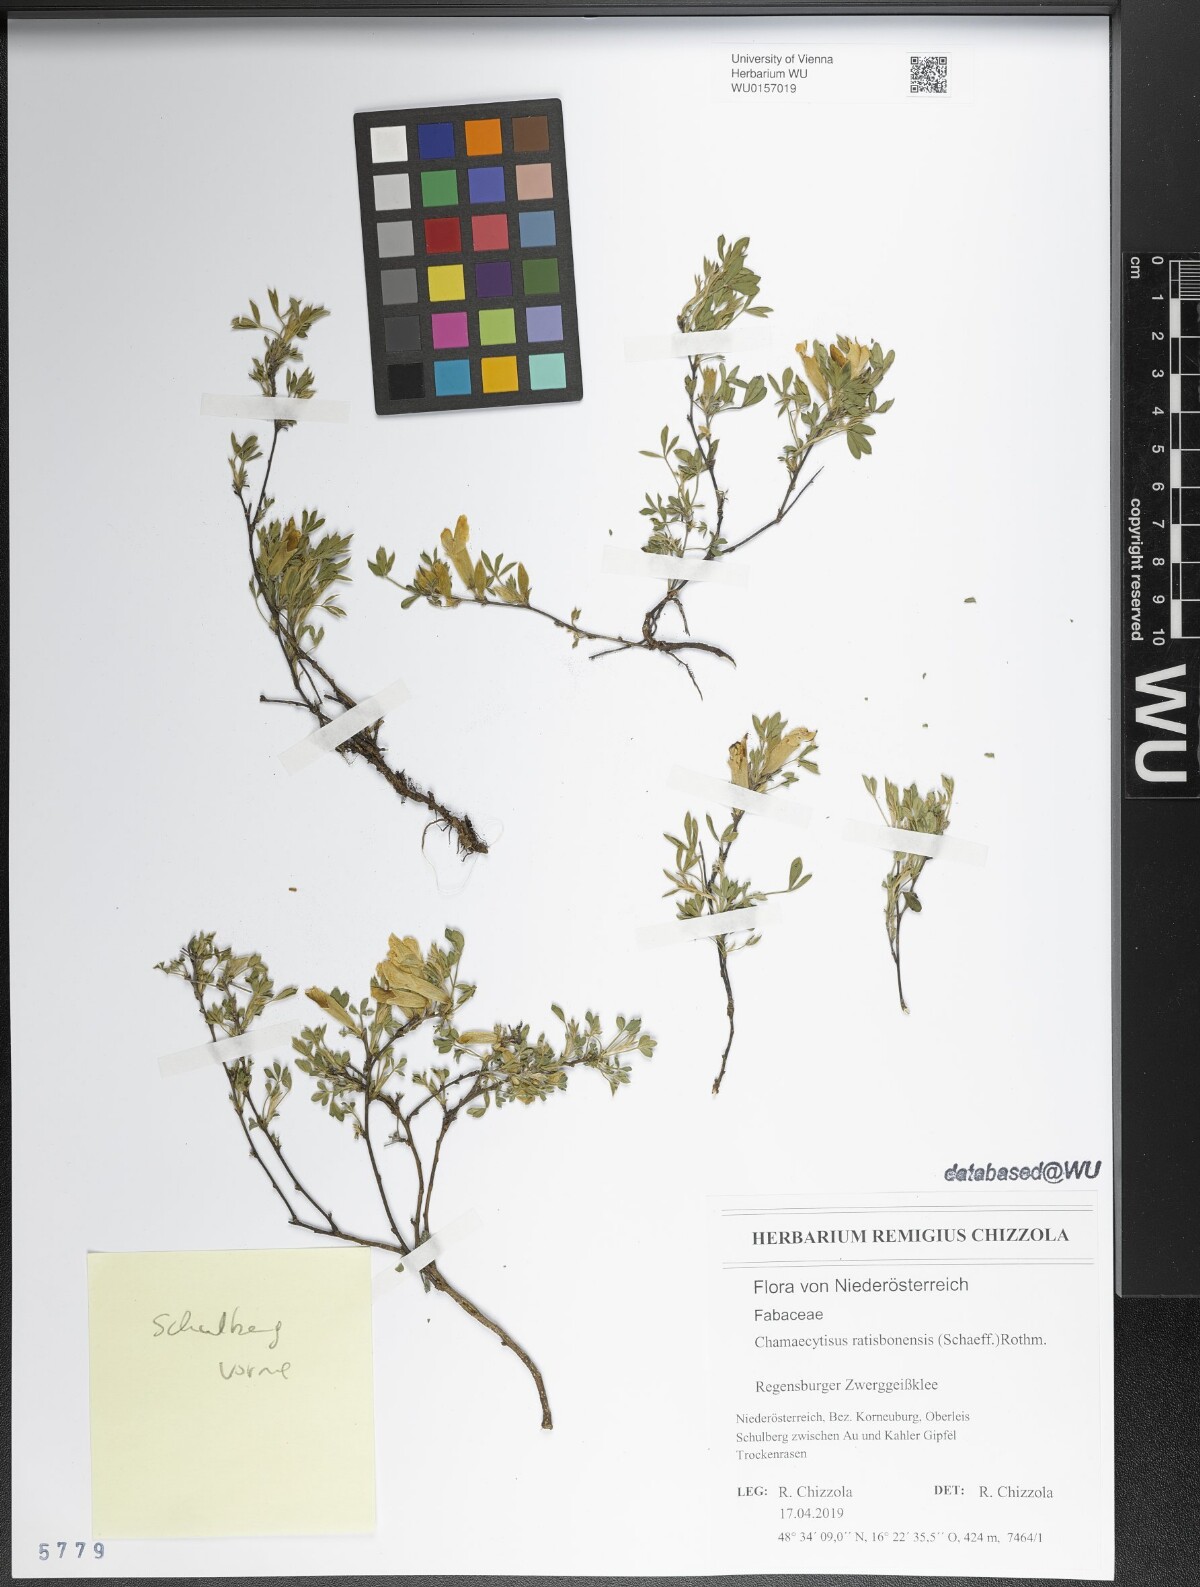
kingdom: Plantae
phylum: Tracheophyta
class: Magnoliopsida
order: Fabales
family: Fabaceae
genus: Chamaecytisus
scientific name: Chamaecytisus ratisbonensis
